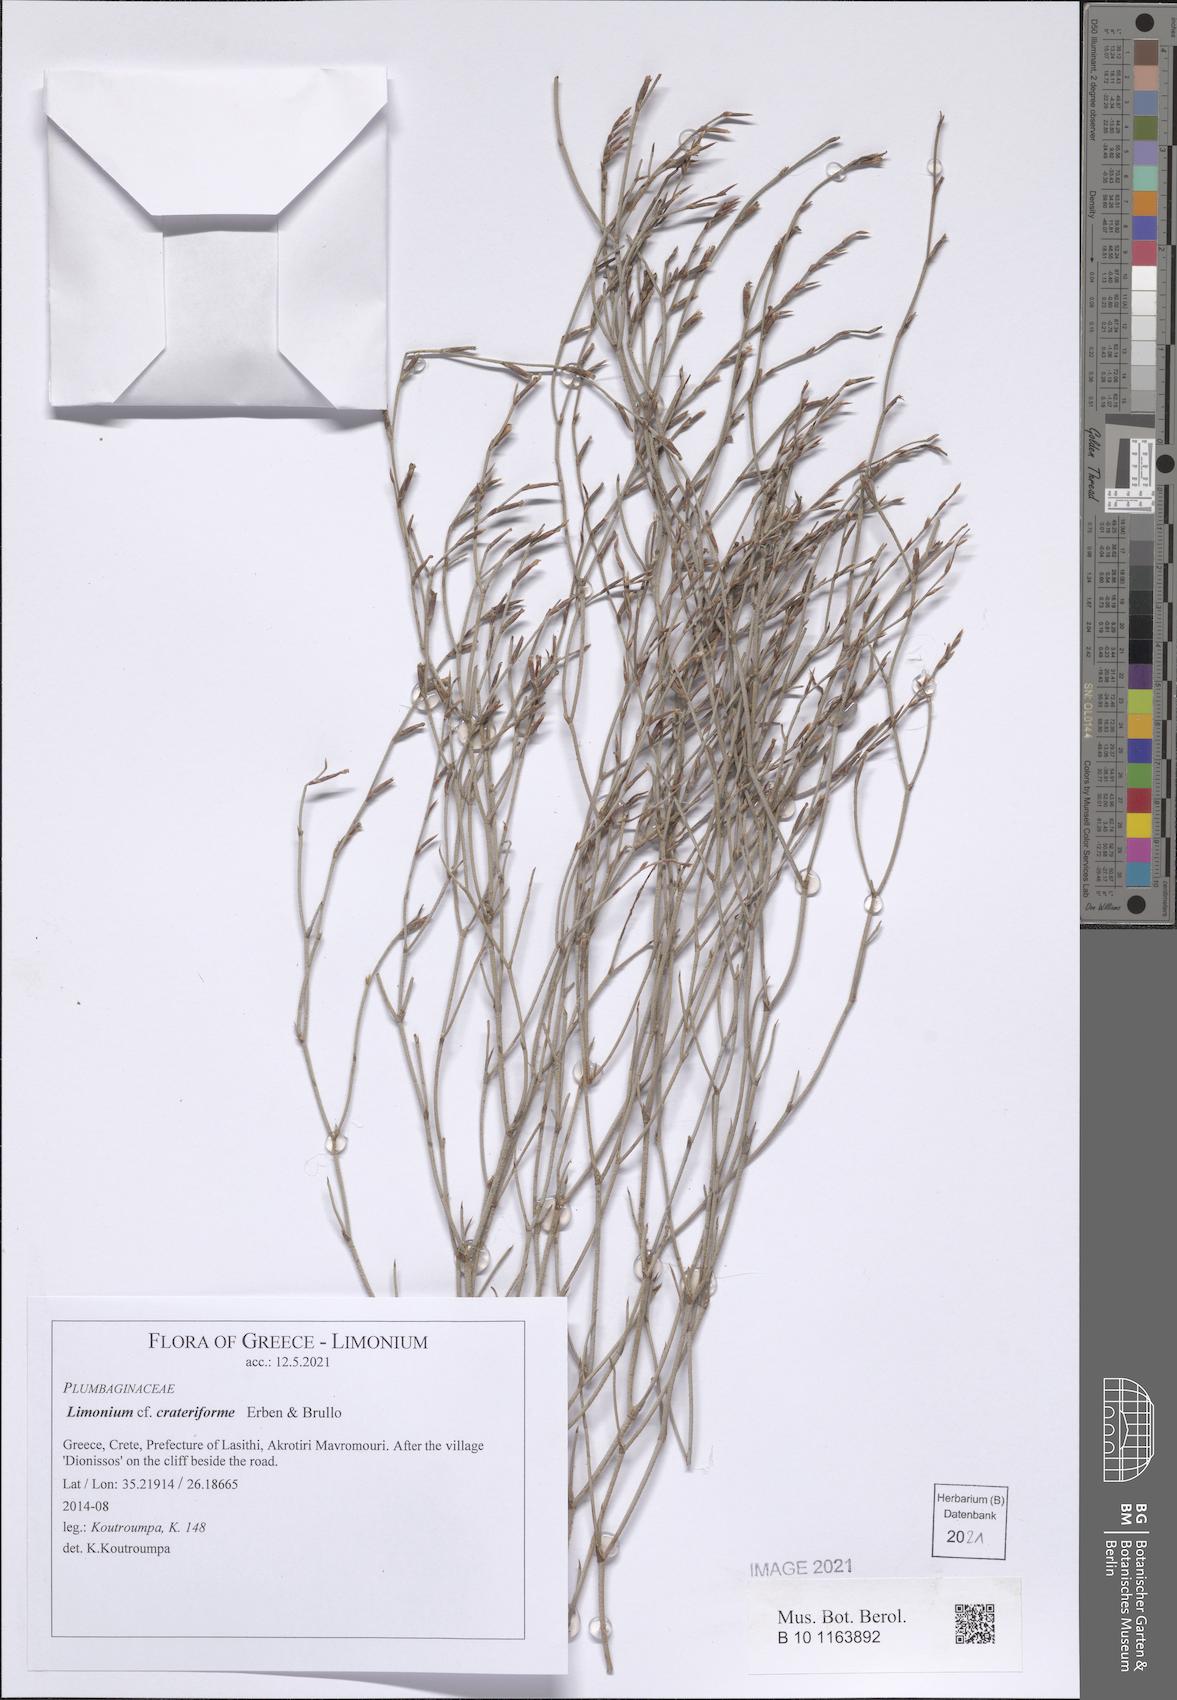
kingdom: Plantae
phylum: Tracheophyta
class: Magnoliopsida
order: Caryophyllales
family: Plumbaginaceae
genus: Limonium
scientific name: Limonium crateriforme
